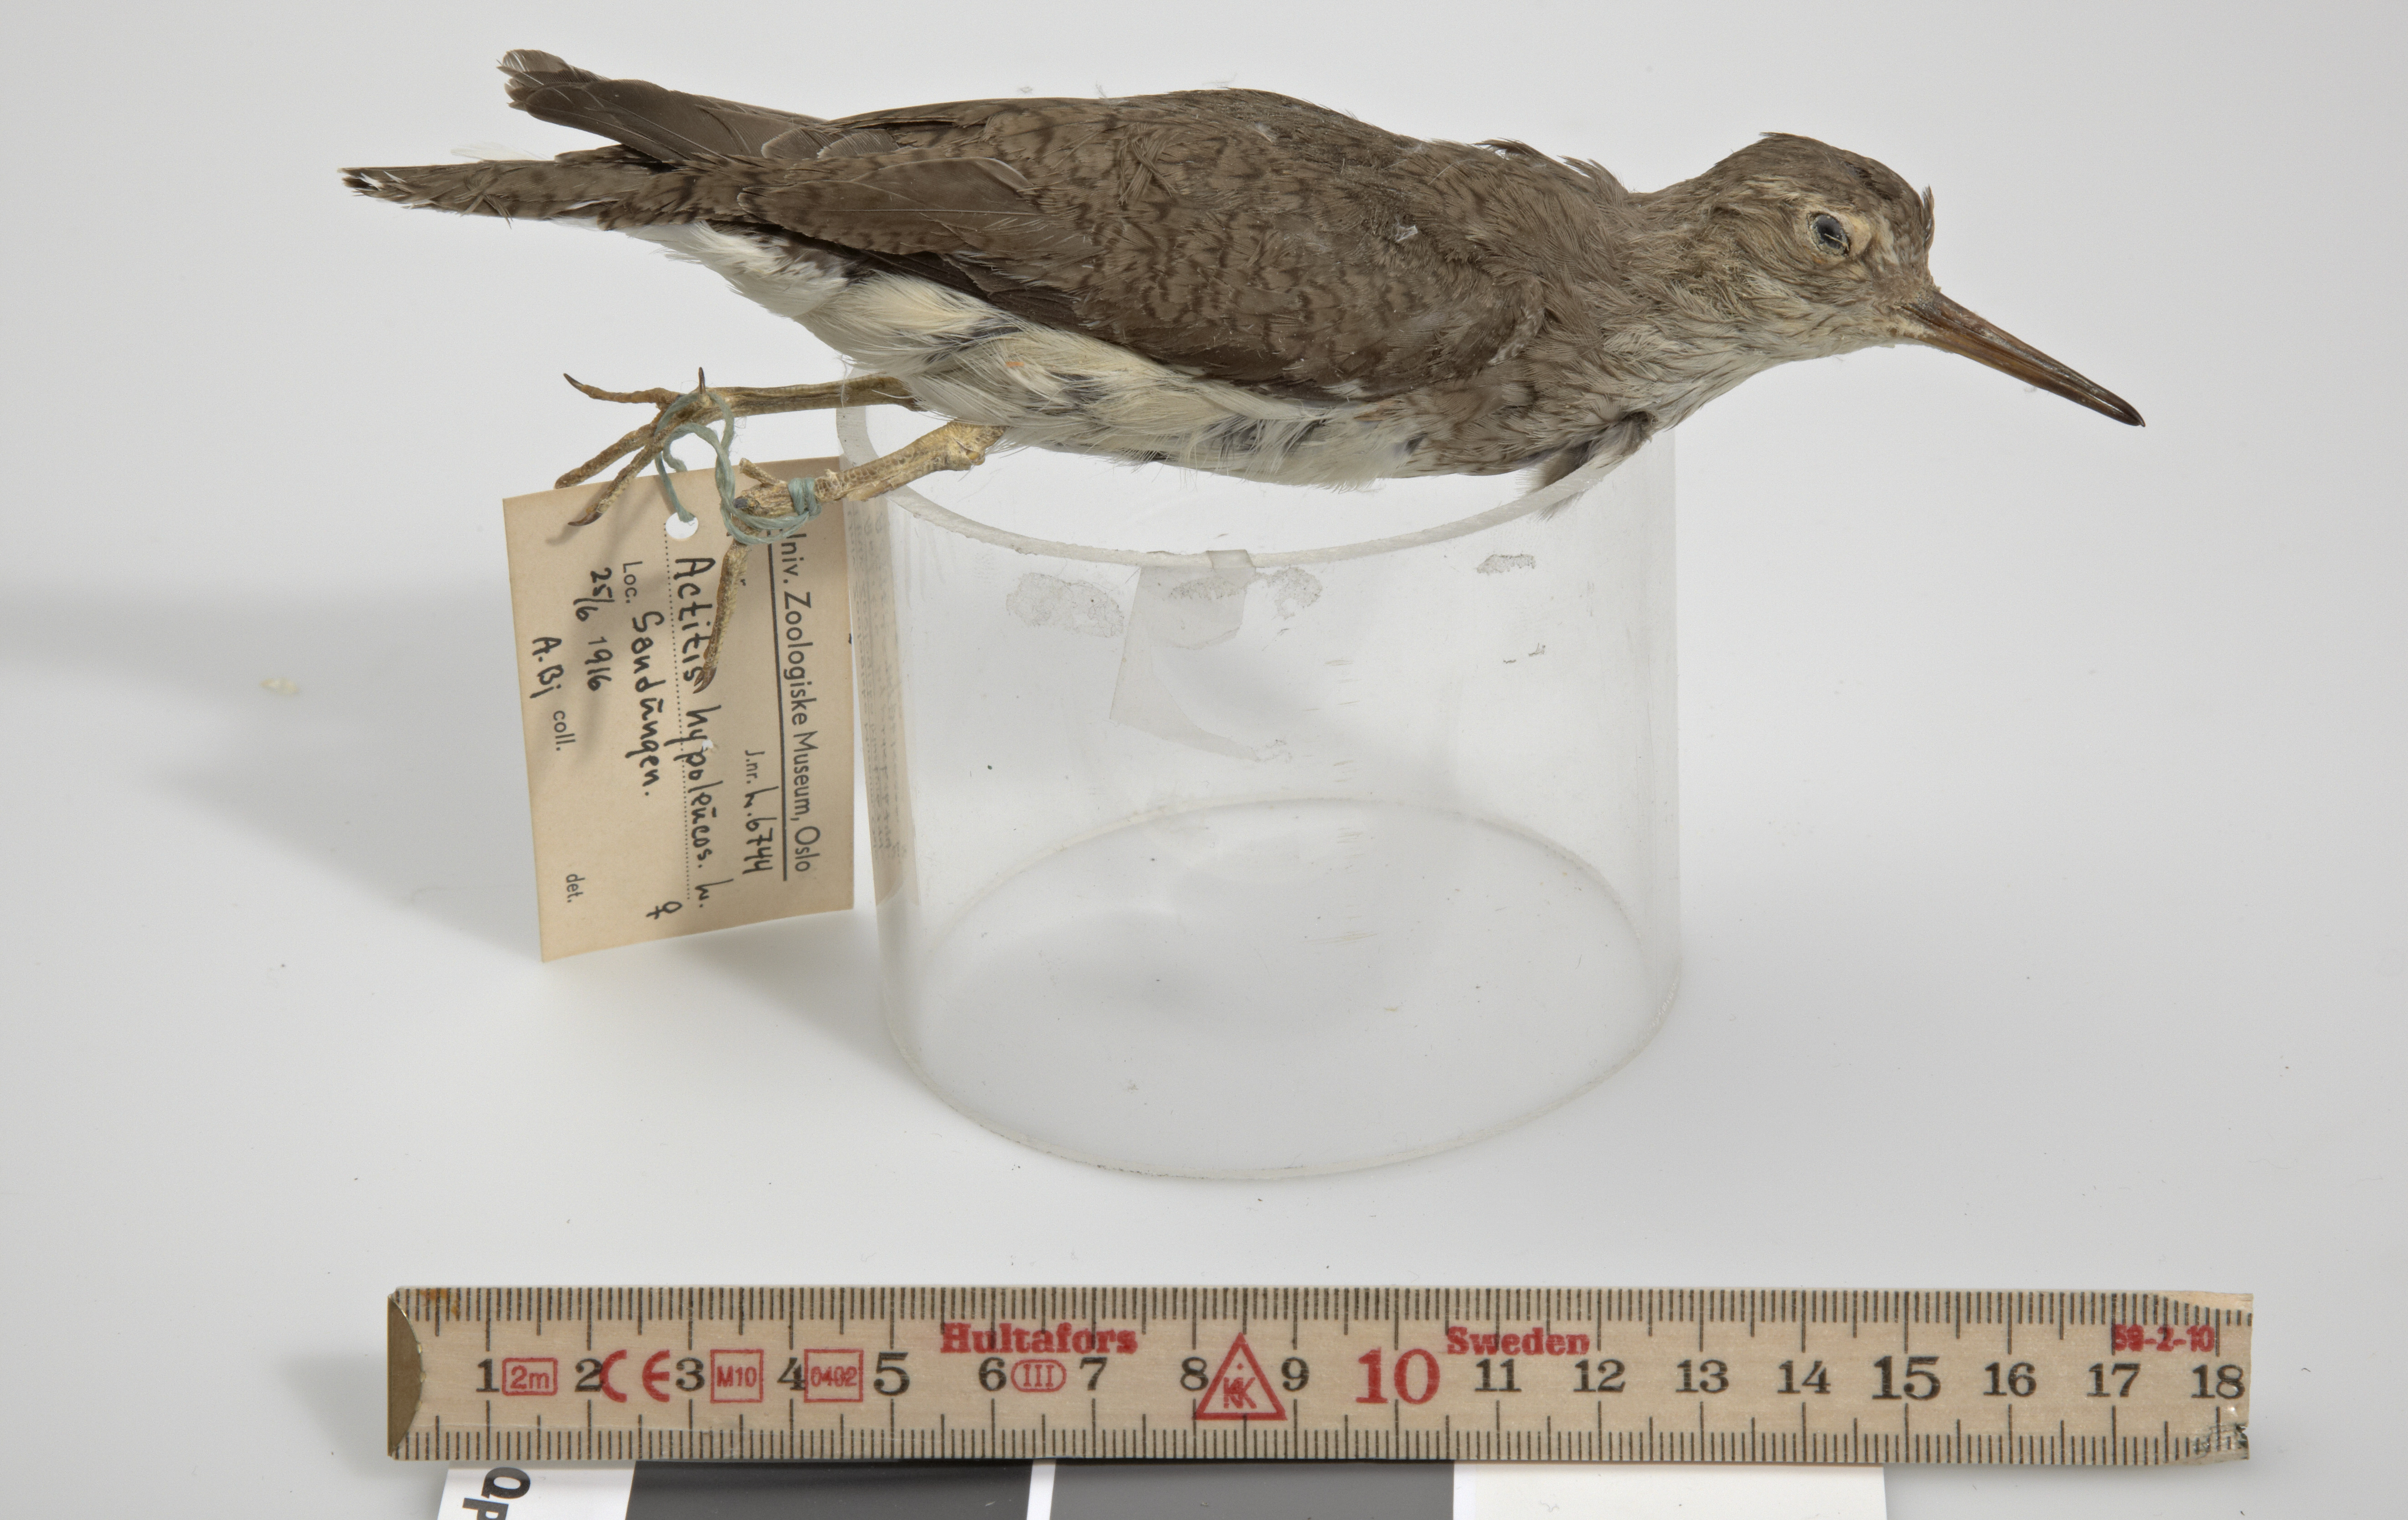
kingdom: Animalia
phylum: Chordata
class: Aves
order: Charadriiformes
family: Scolopacidae
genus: Actitis
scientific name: Actitis hypoleucos
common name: Common sandpiper
